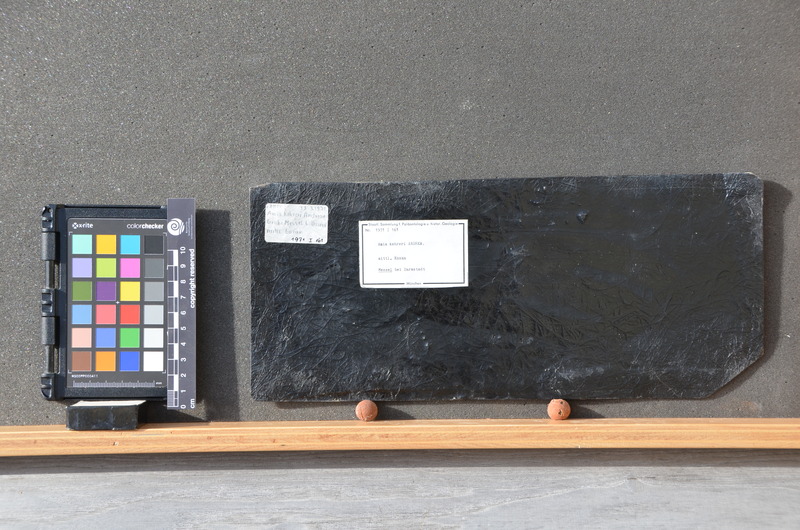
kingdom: Animalia
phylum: Chordata
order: Amiiformes
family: Amiidae
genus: Cyclurus
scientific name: Cyclurus Amia kehreri
